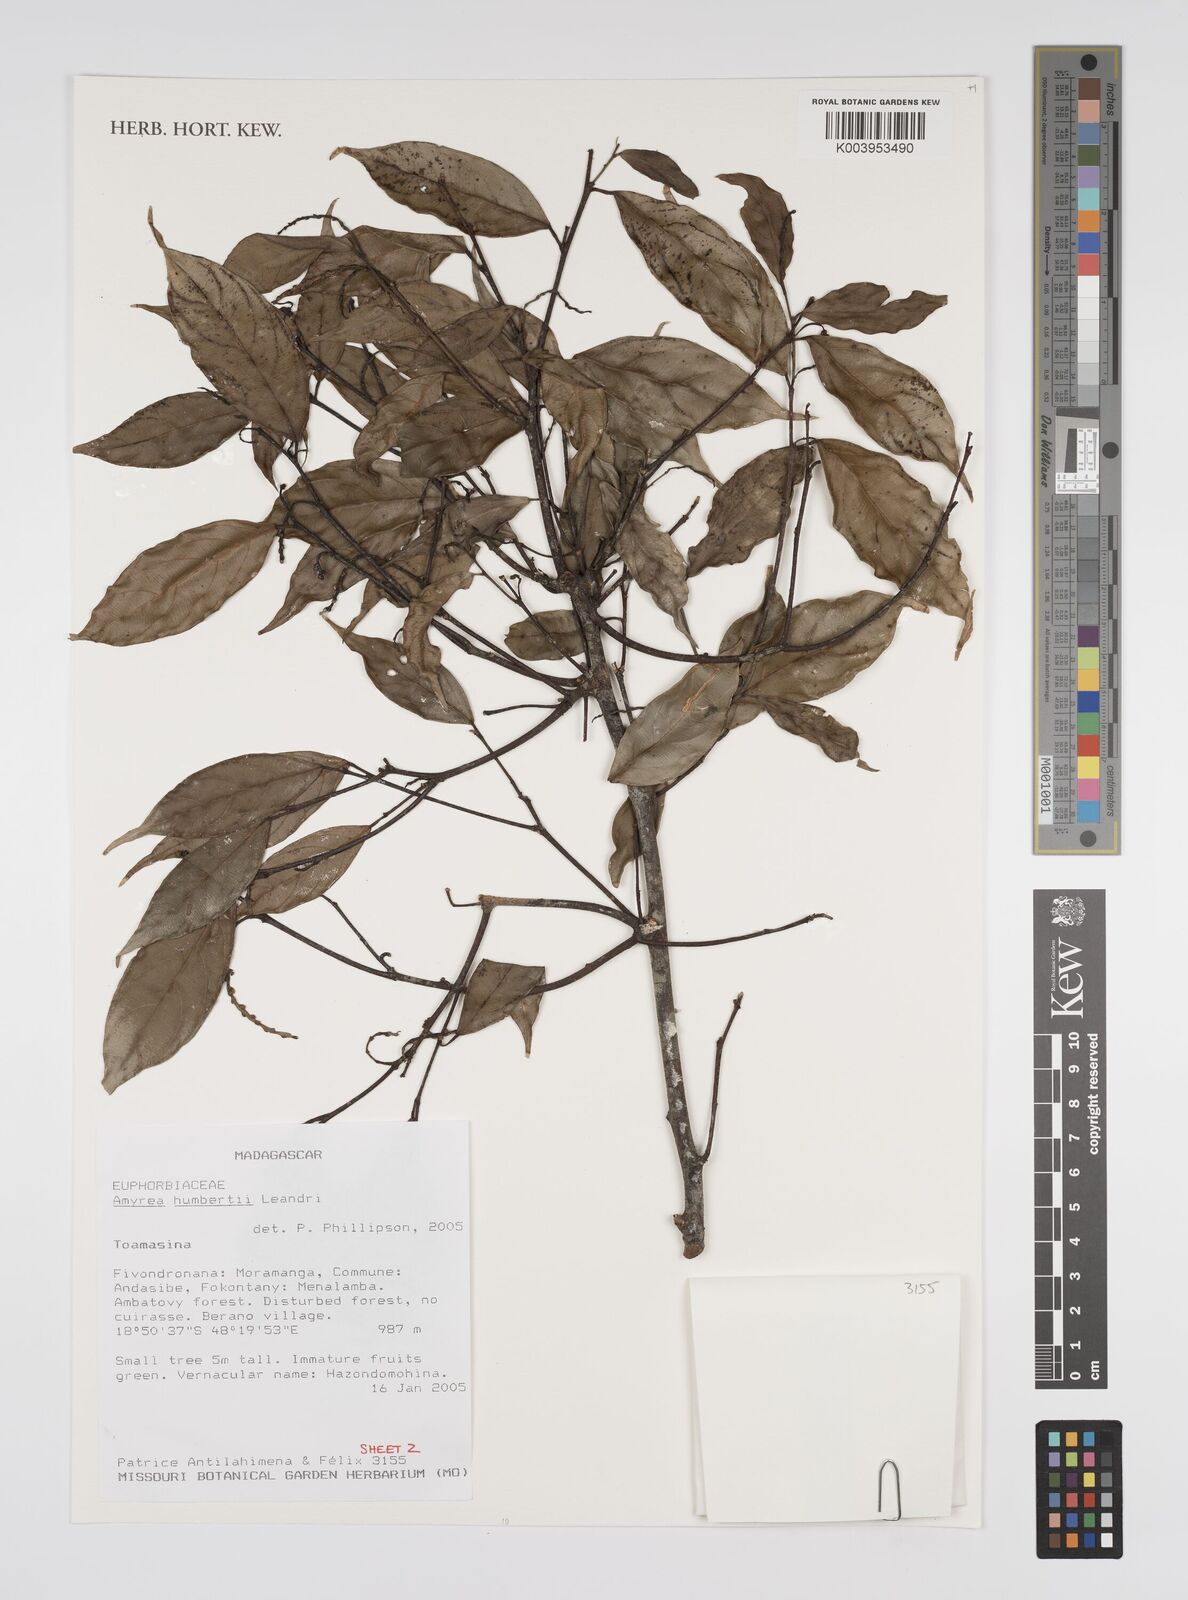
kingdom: Plantae
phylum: Tracheophyta
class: Magnoliopsida
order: Malpighiales
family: Euphorbiaceae
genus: Amyrea
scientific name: Amyrea humbertii
